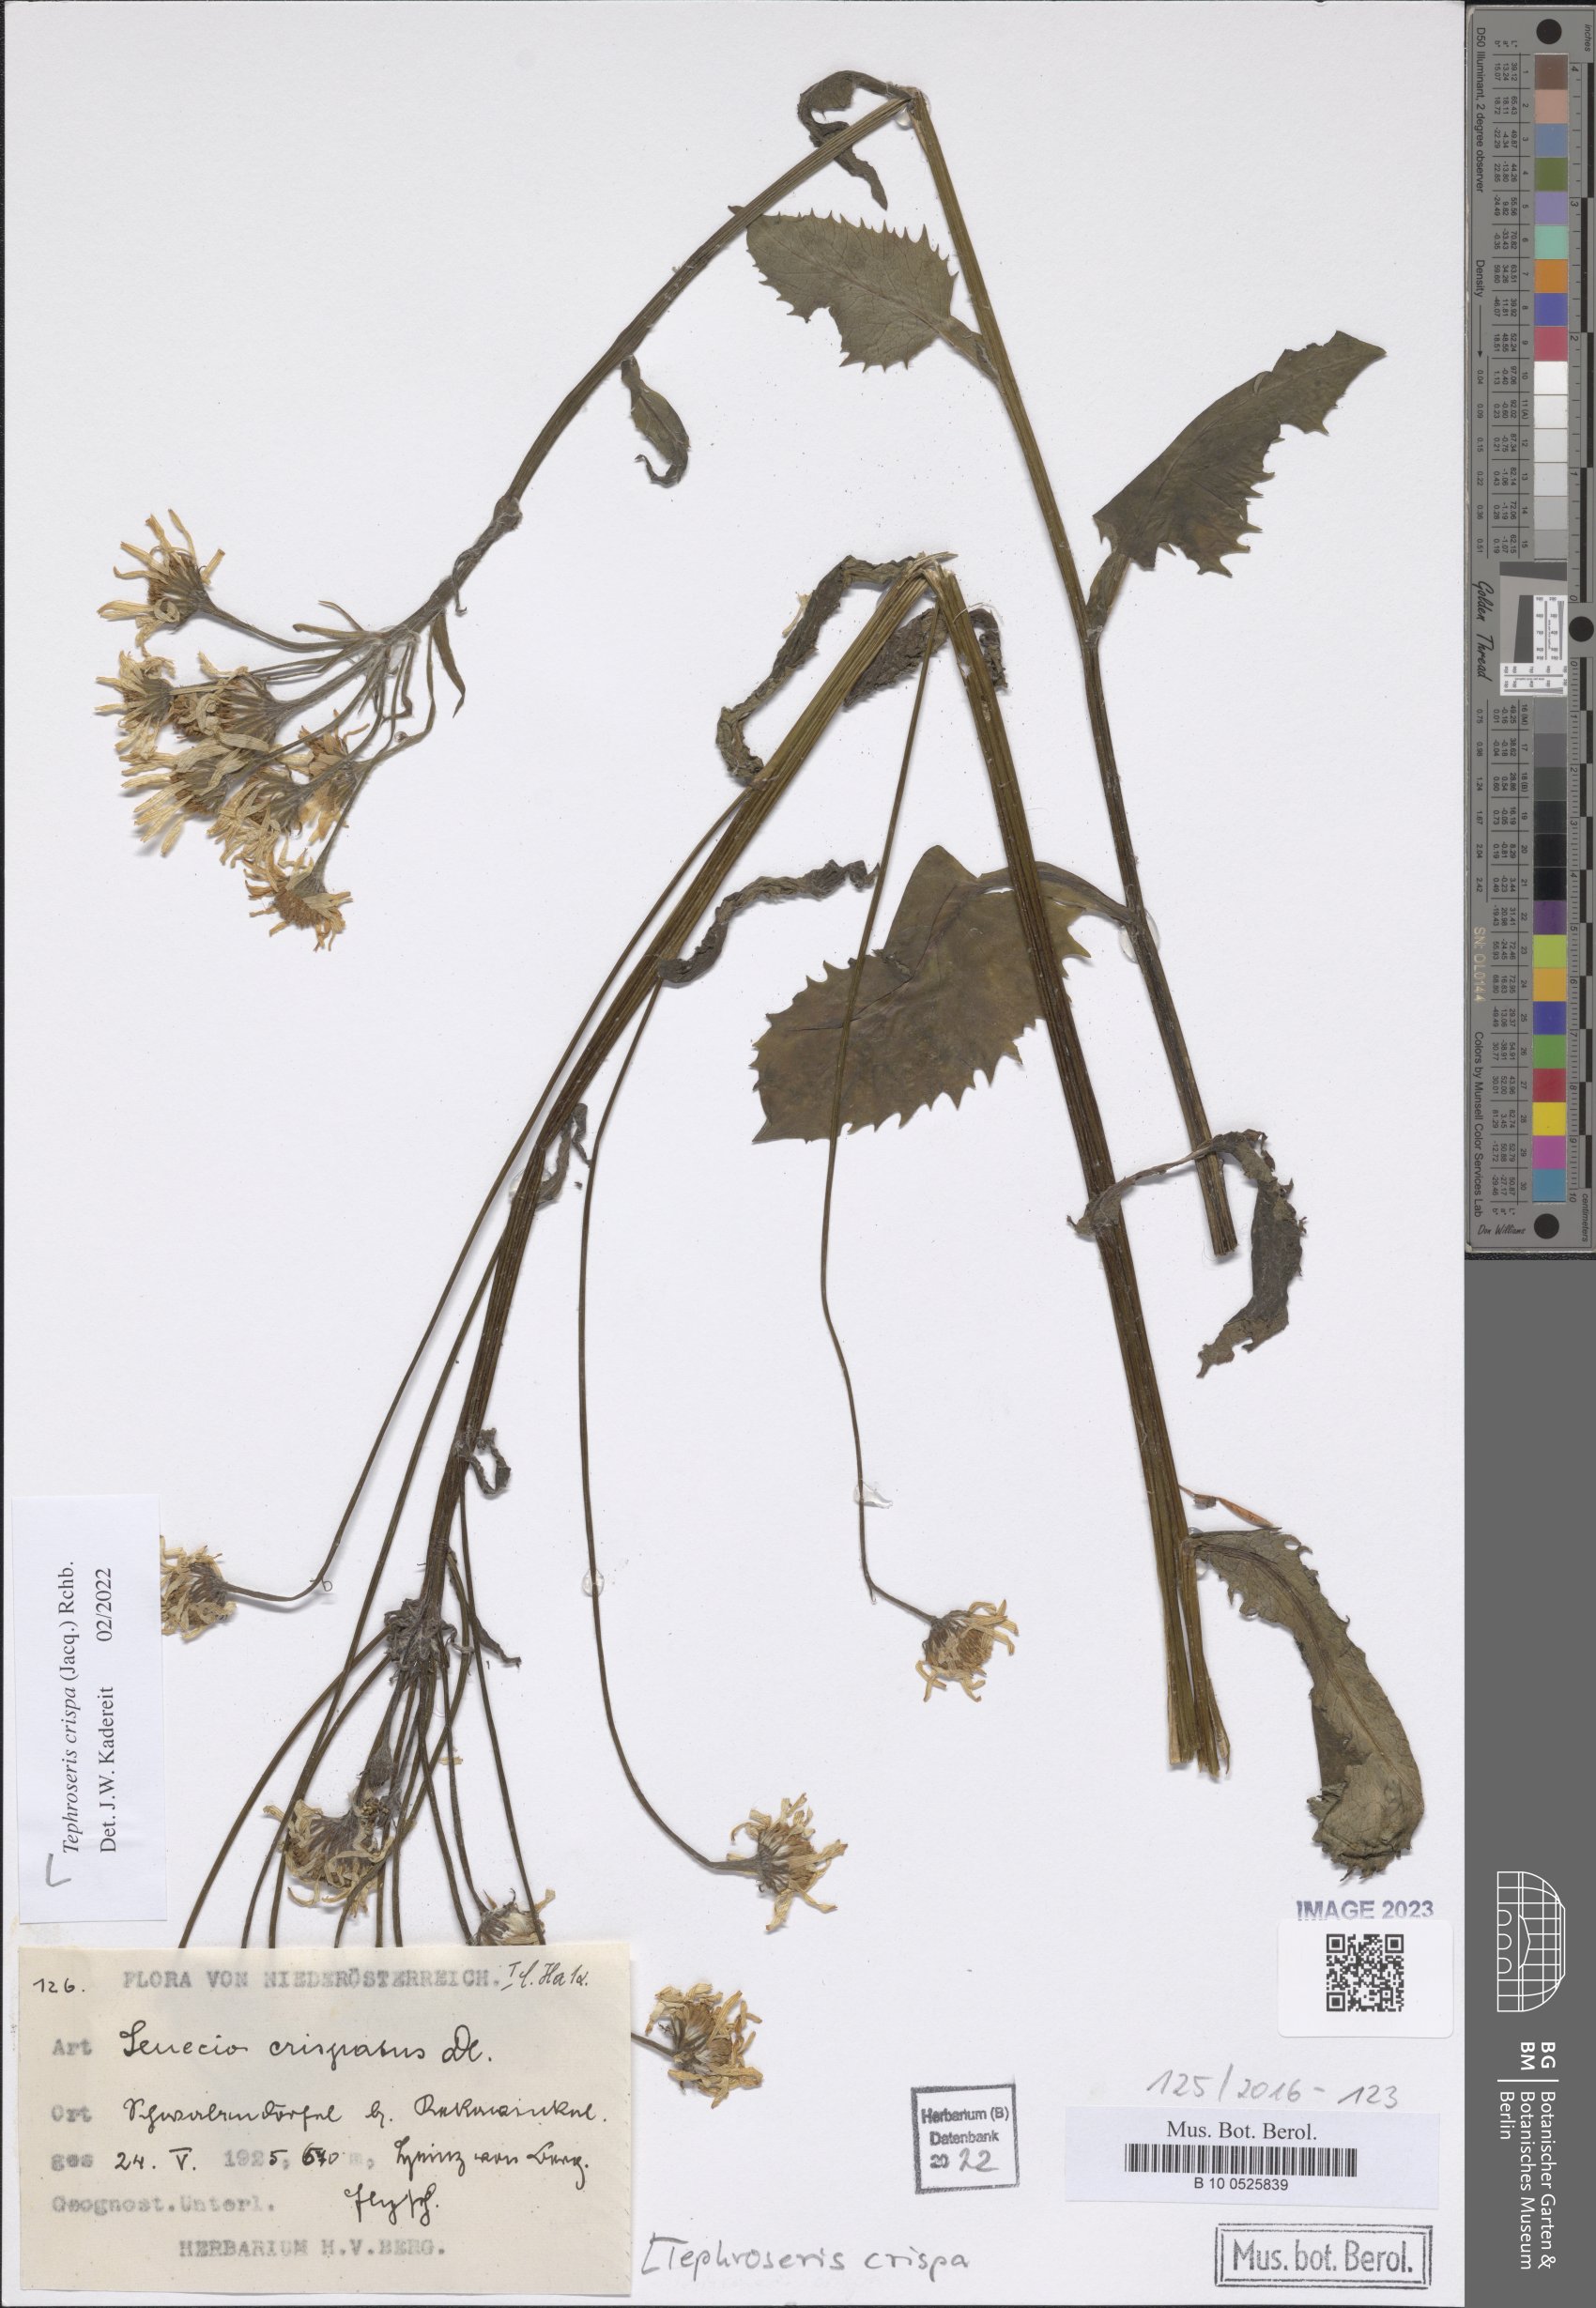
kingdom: Plantae
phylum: Tracheophyta
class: Magnoliopsida
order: Asterales
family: Asteraceae
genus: Tephroseris
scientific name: Tephroseris crispa
